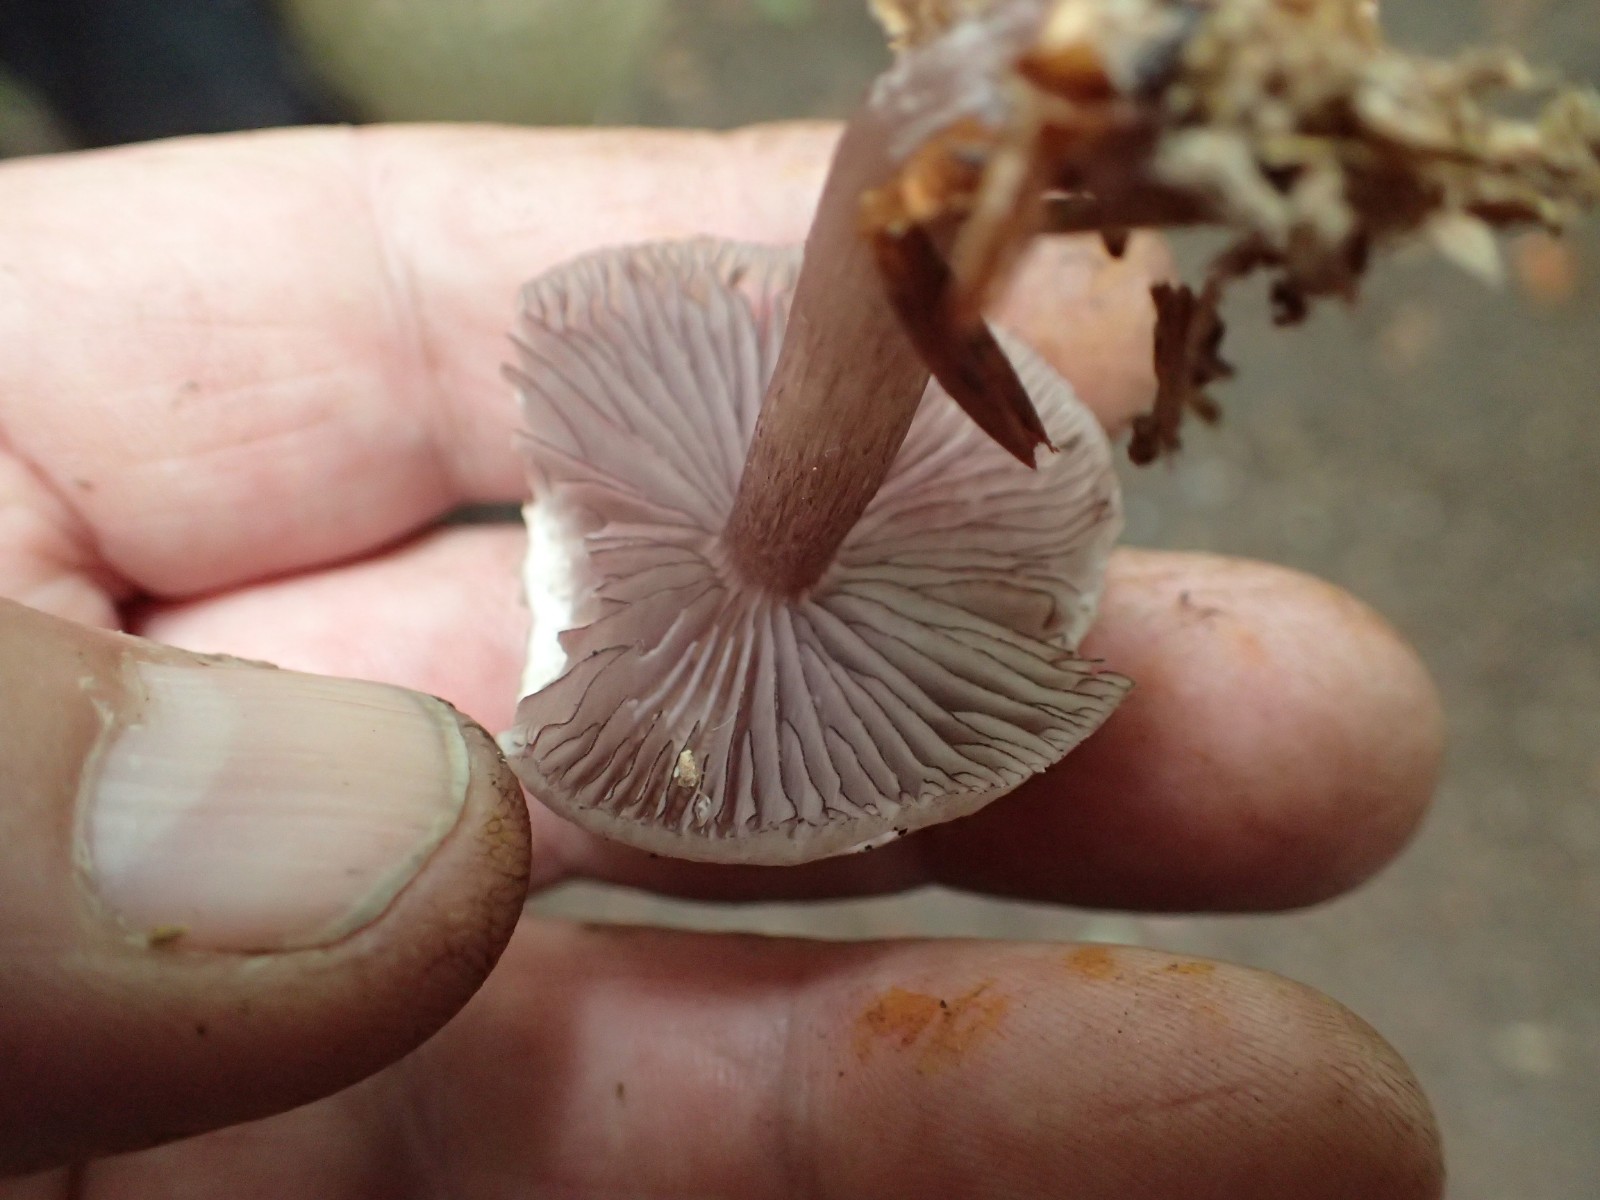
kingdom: Fungi
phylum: Basidiomycota
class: Agaricomycetes
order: Agaricales
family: Mycenaceae
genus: Mycena
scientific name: Mycena pelianthina
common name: mørkbladet huesvamp
